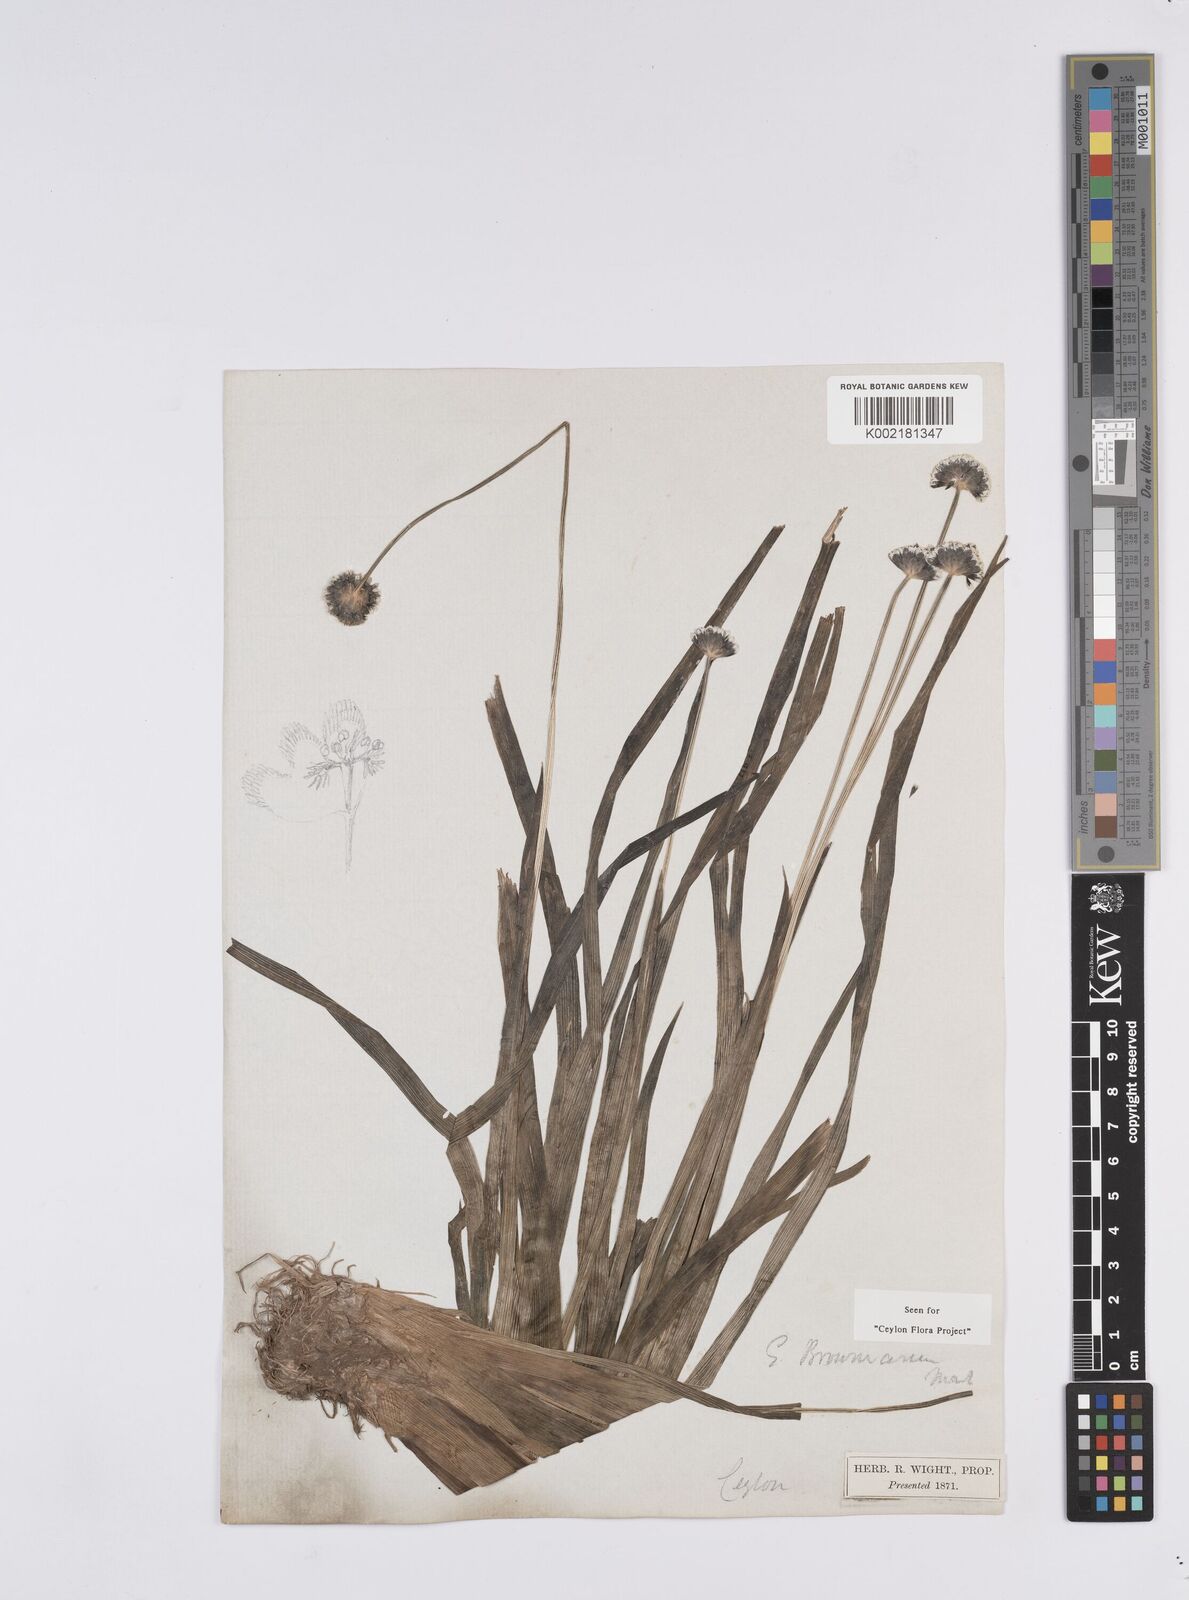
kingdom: Plantae
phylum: Tracheophyta
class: Liliopsida
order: Poales
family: Eriocaulaceae
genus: Eriocaulon
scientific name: Eriocaulon brownianum
